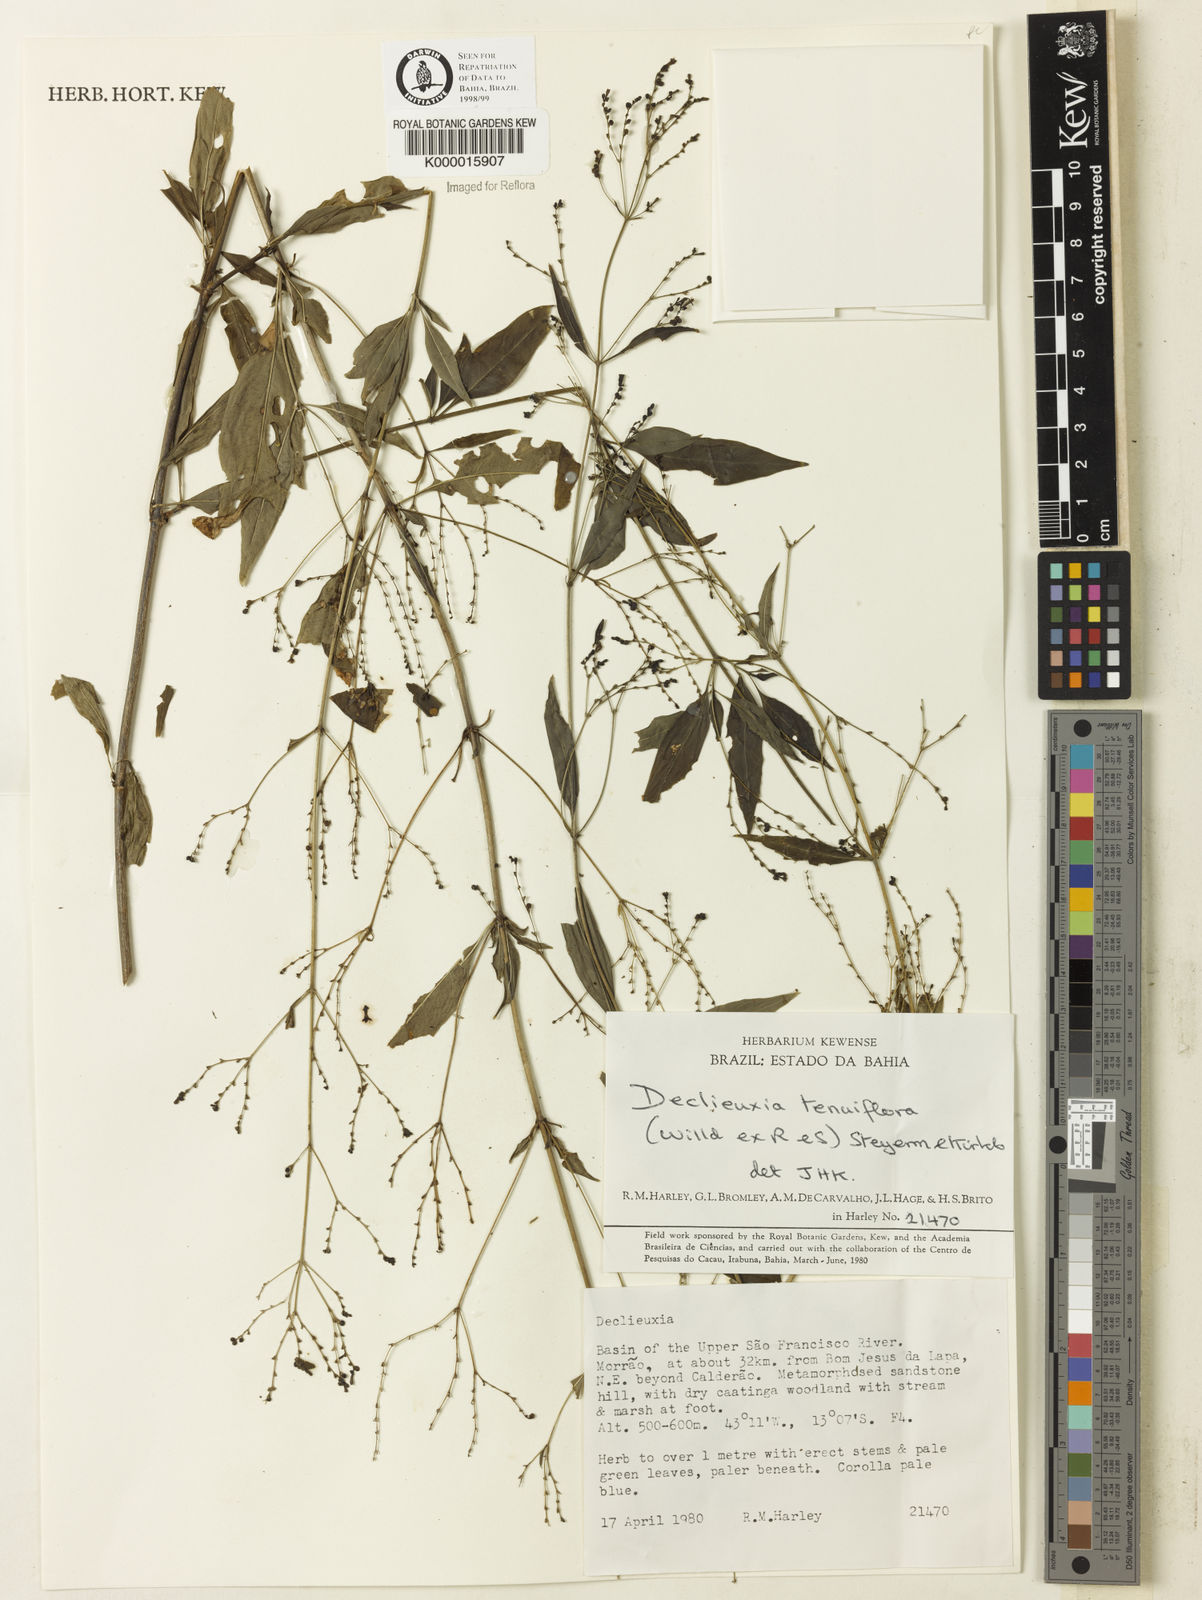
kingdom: Plantae
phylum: Tracheophyta
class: Magnoliopsida
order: Gentianales
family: Rubiaceae
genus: Declieuxia
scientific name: Declieuxia tenuiflora
